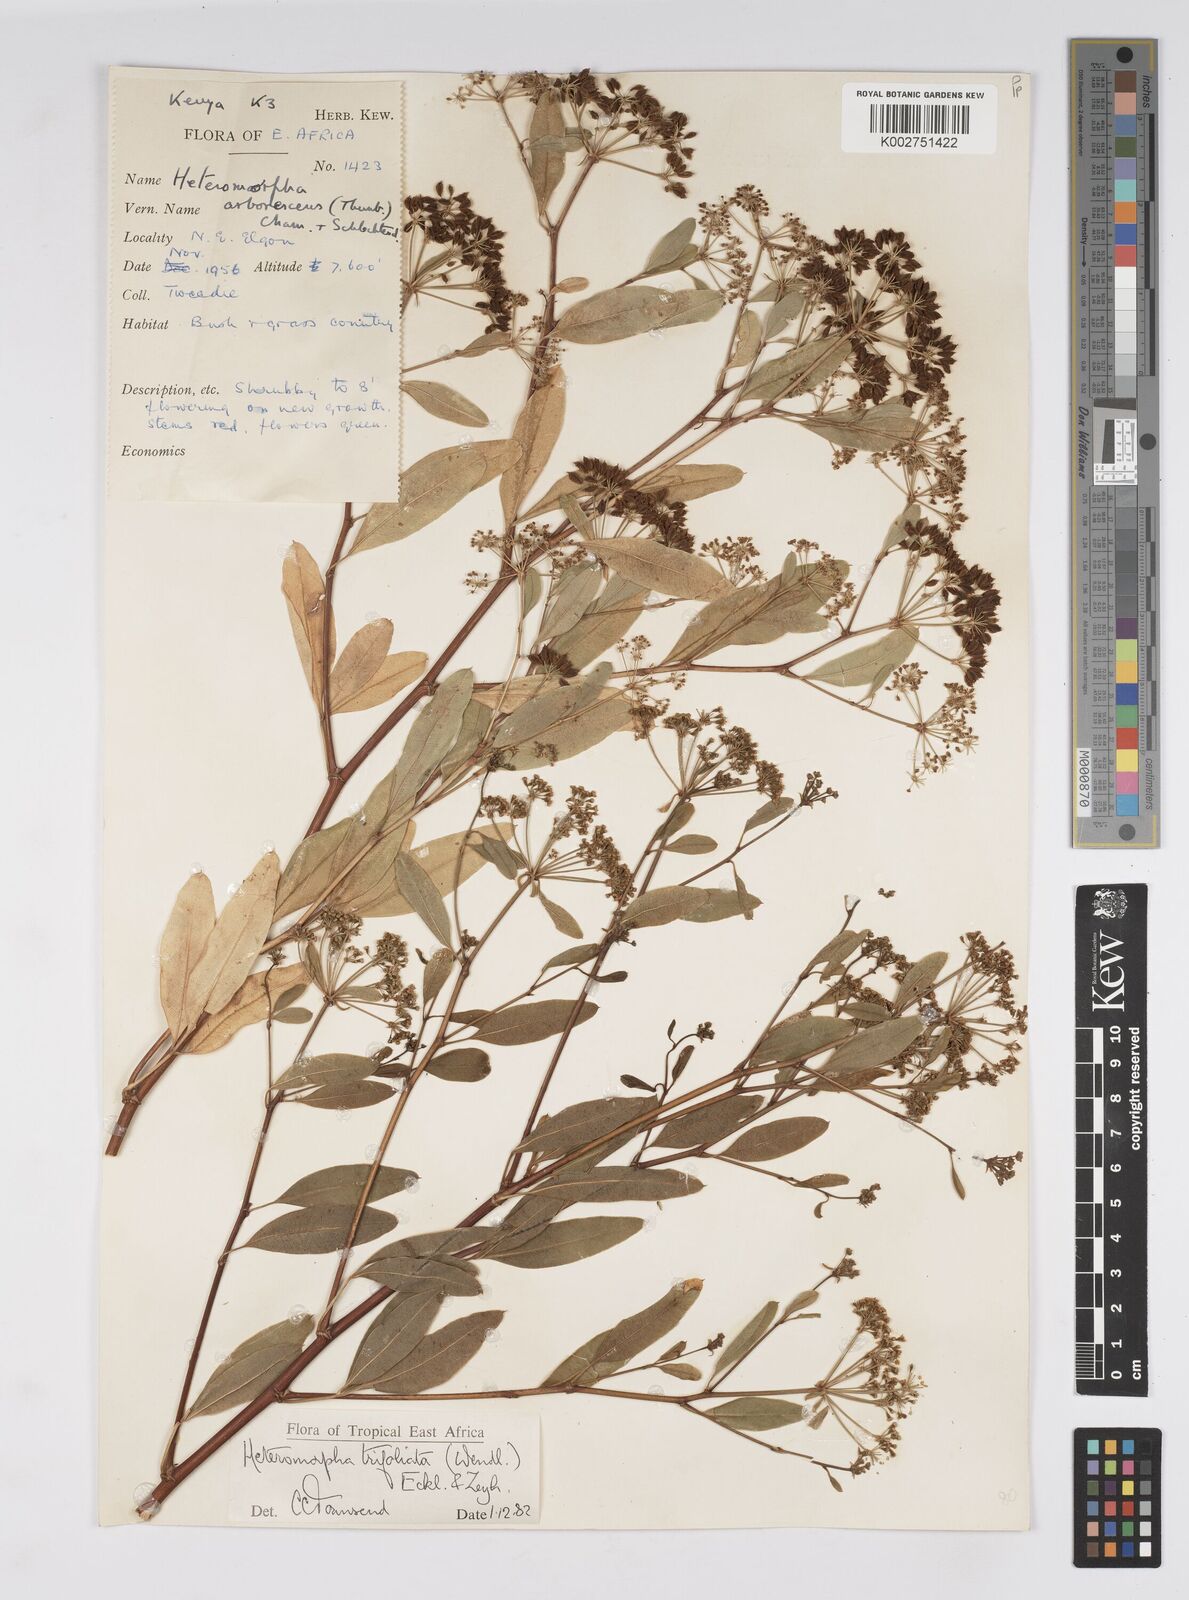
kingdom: Plantae
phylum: Tracheophyta
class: Magnoliopsida
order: Apiales
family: Apiaceae
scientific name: Apiaceae
